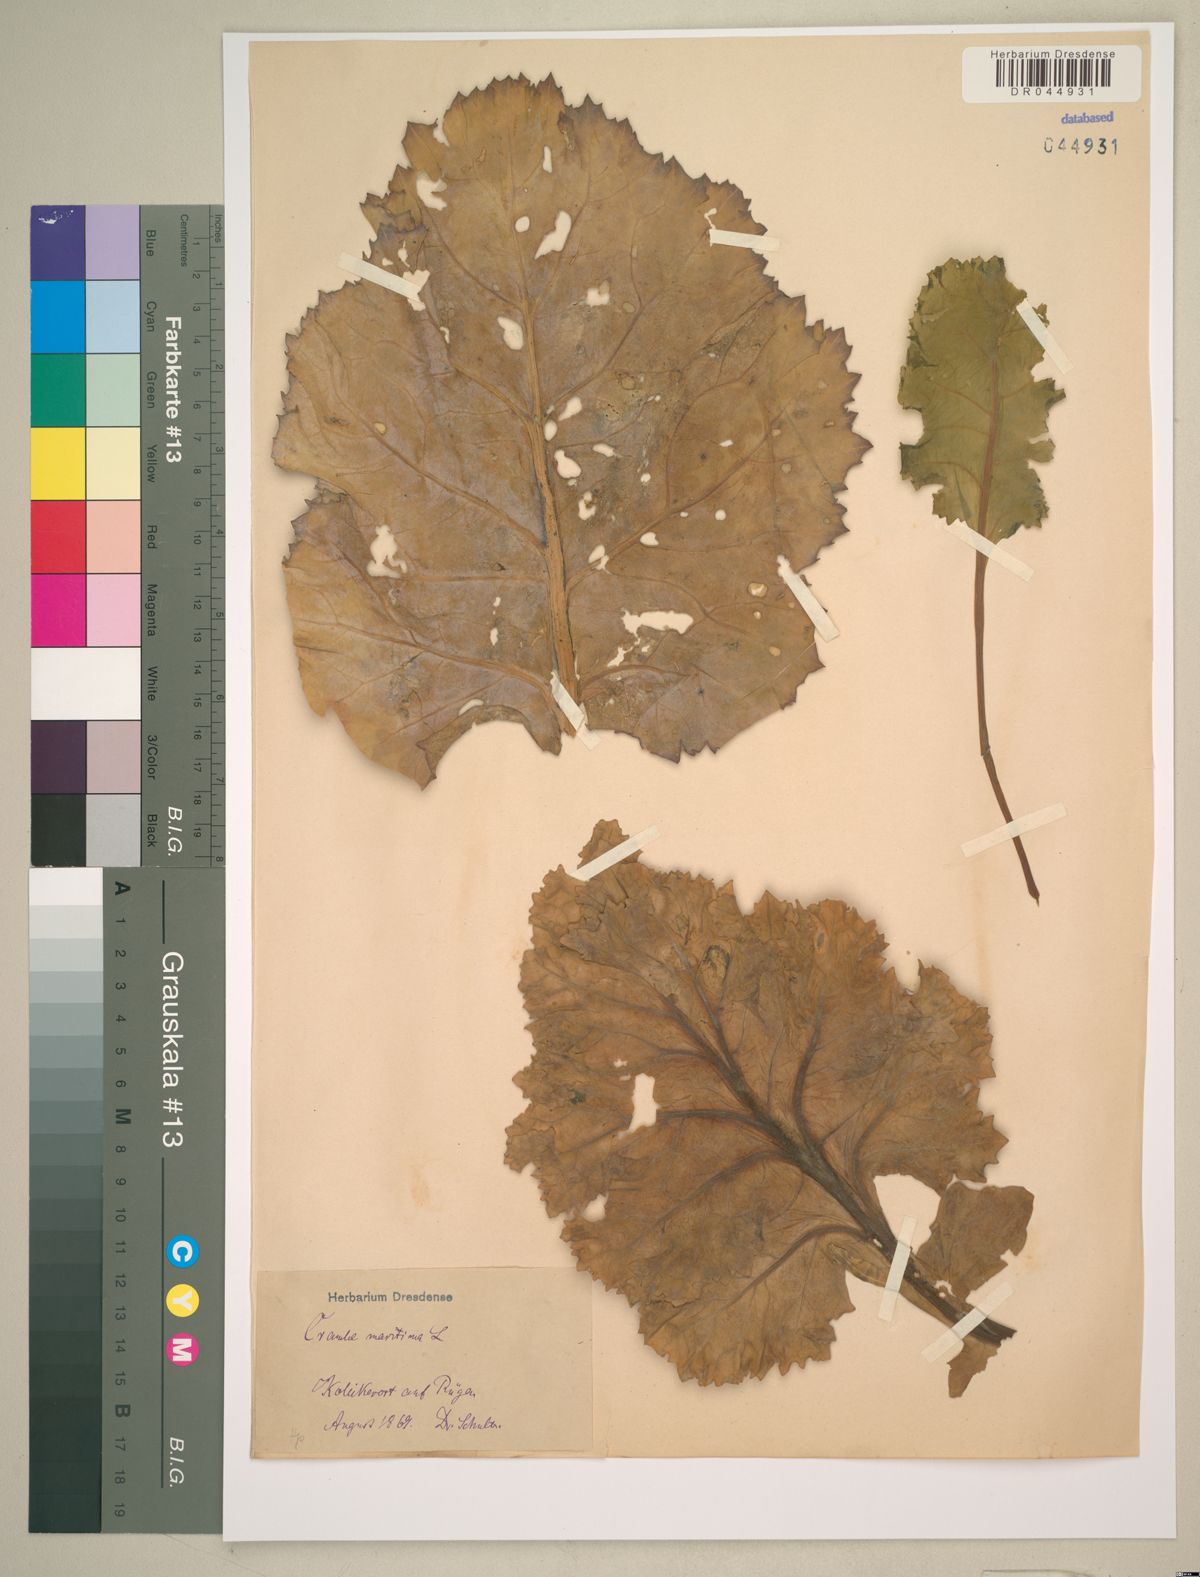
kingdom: Plantae
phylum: Tracheophyta
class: Magnoliopsida
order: Brassicales
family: Brassicaceae
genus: Crambe
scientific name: Crambe maritima
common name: Sea-kale
